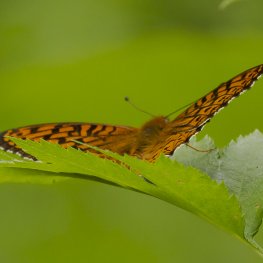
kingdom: Animalia
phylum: Arthropoda
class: Insecta
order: Lepidoptera
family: Nymphalidae
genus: Speyeria
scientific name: Speyeria atlantis
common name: Atlantis Fritillary
